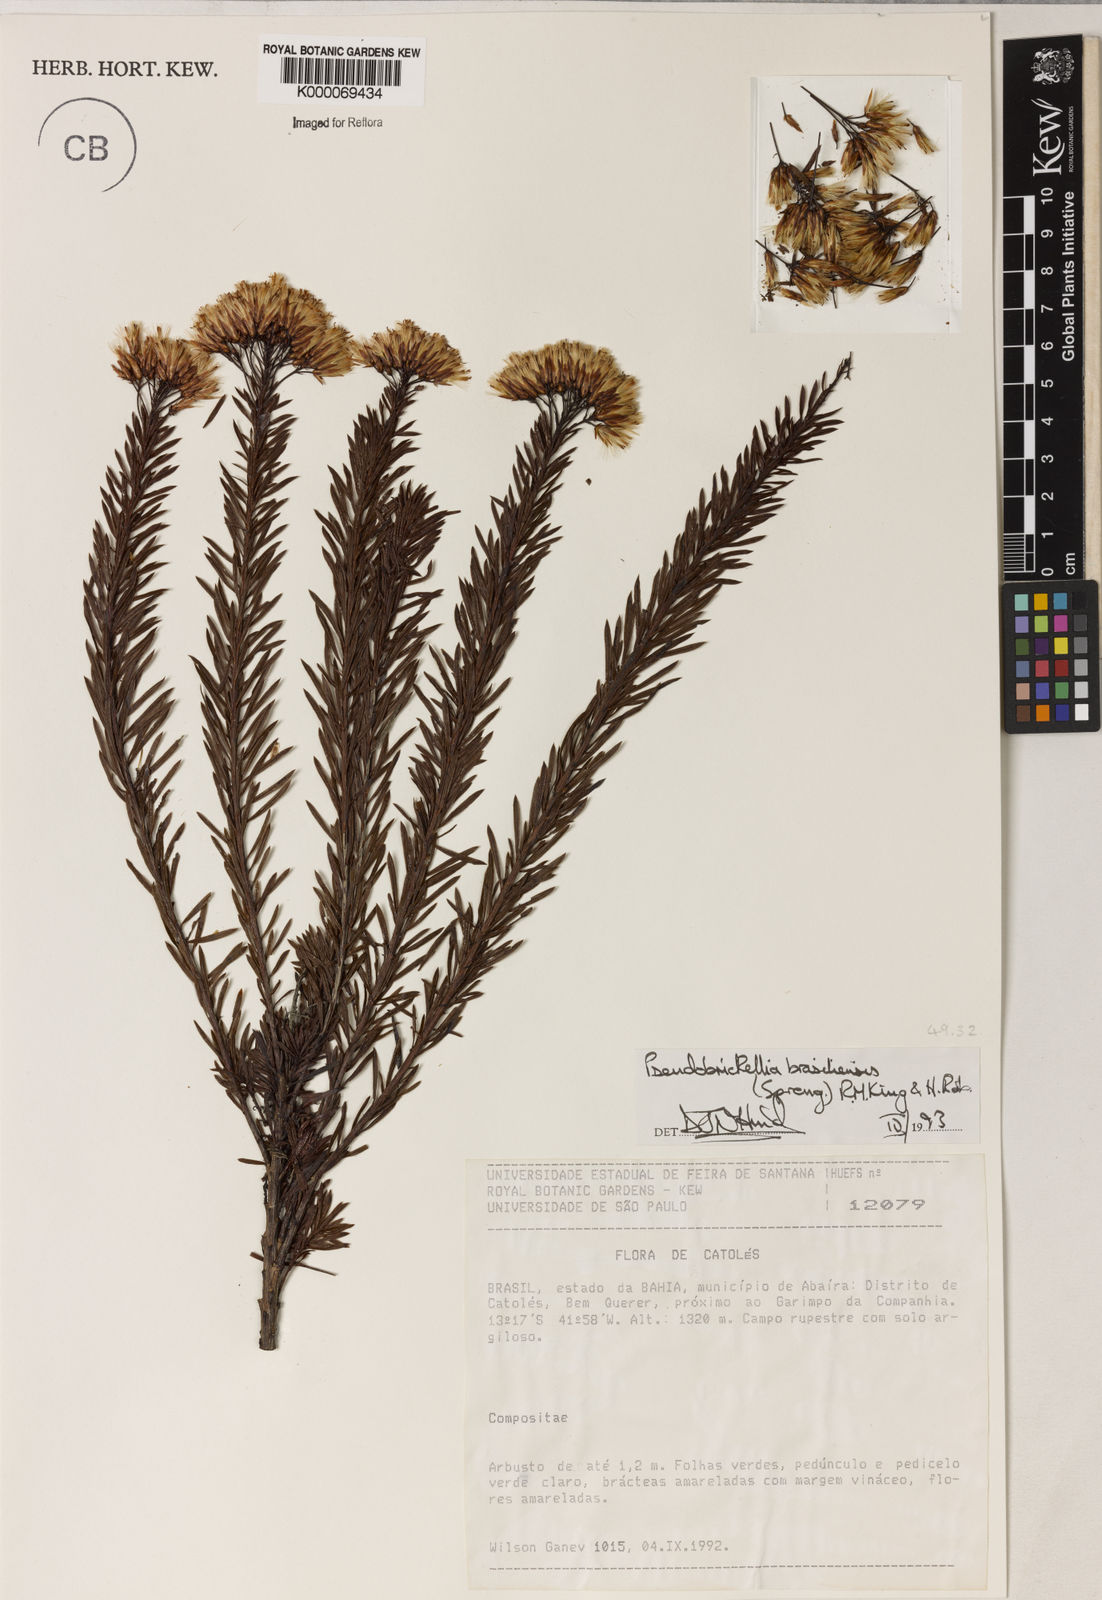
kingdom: Plantae
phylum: Tracheophyta
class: Magnoliopsida
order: Asterales
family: Asteraceae
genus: Pseudobrickellia
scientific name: Pseudobrickellia brasiliensis
